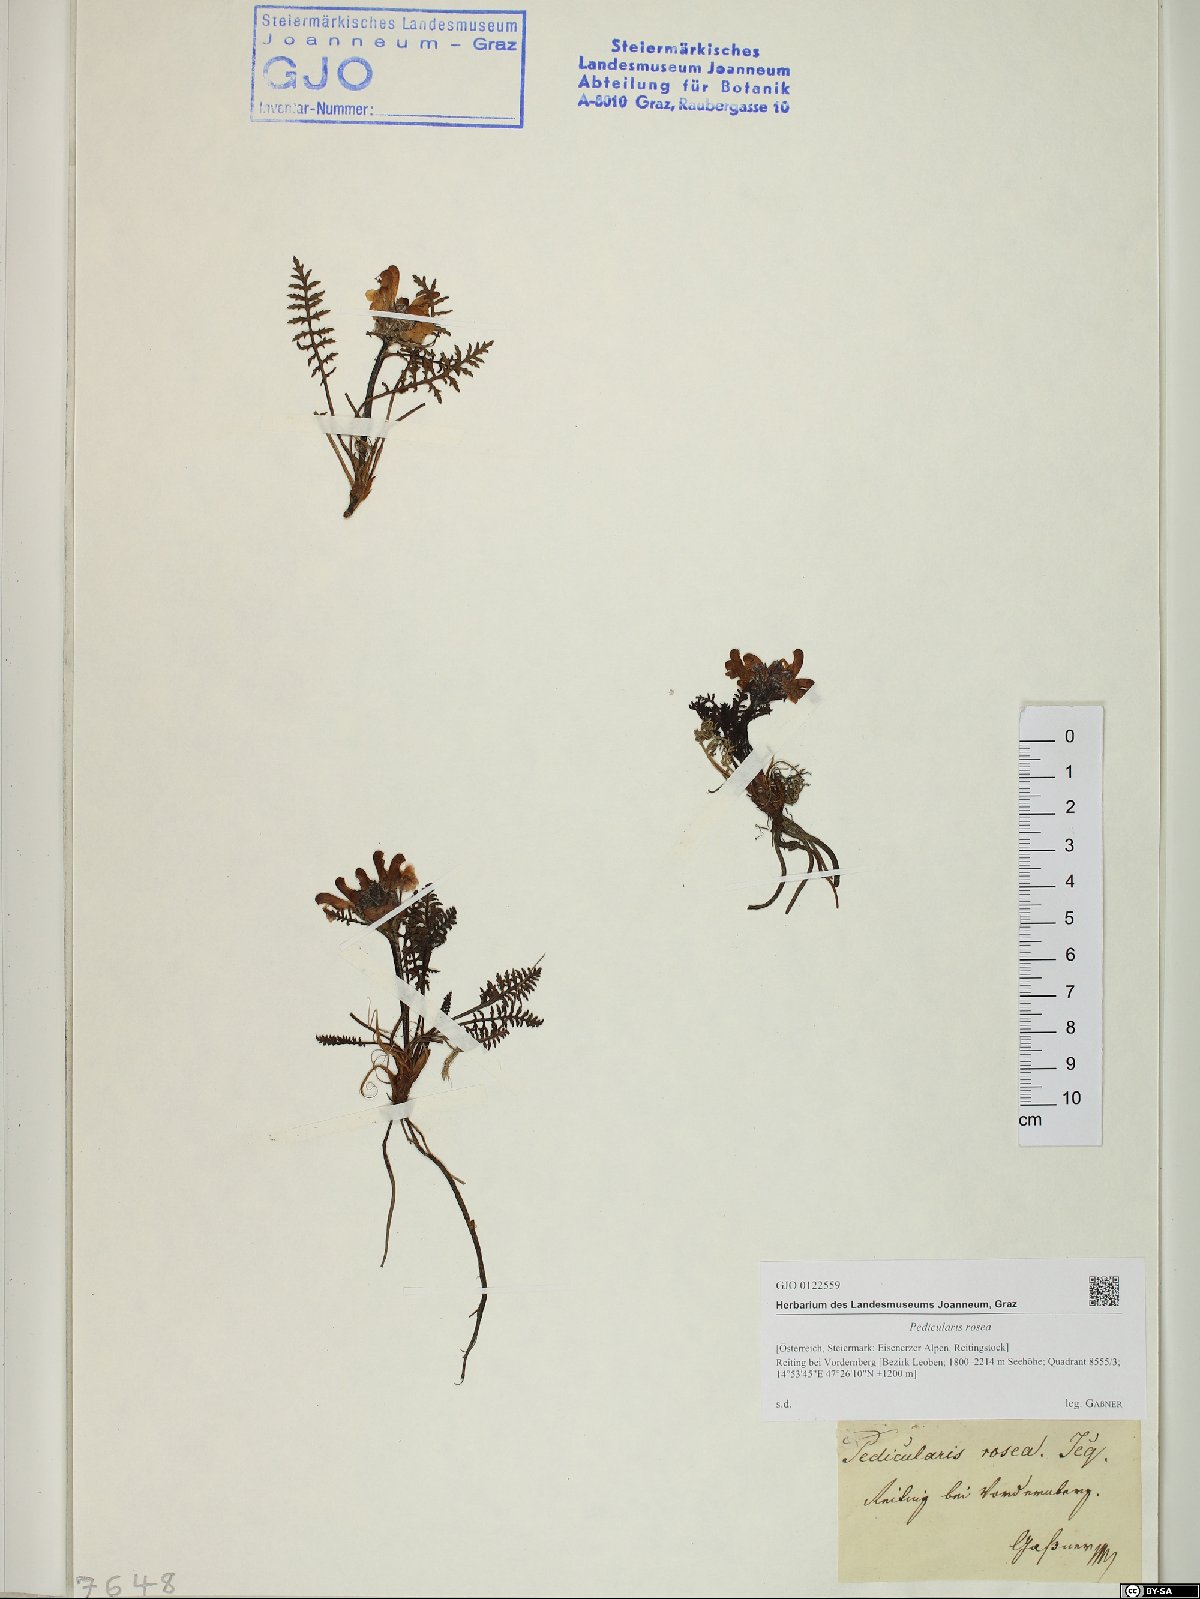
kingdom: Plantae
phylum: Tracheophyta
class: Magnoliopsida
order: Lamiales
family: Orobanchaceae
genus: Pedicularis
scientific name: Pedicularis rosea
